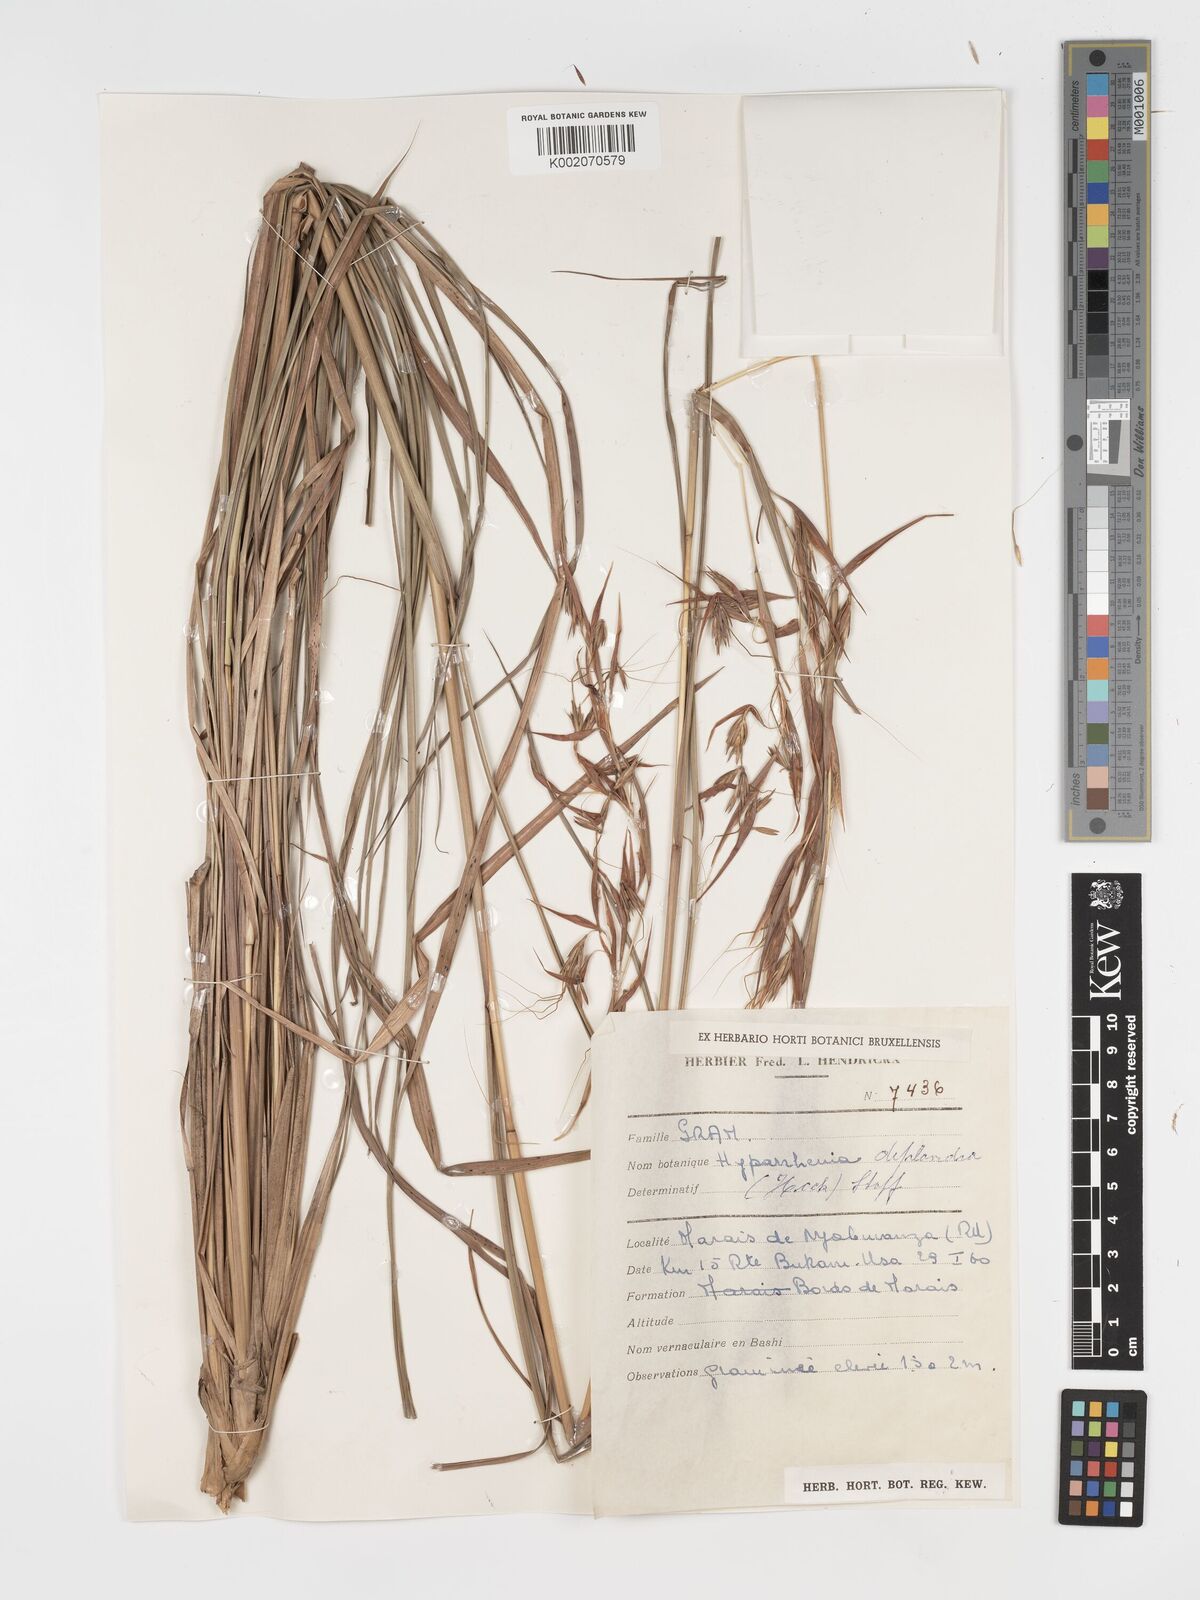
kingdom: Plantae
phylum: Tracheophyta
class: Liliopsida
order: Poales
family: Poaceae
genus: Hyparrhenia
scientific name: Hyparrhenia diplandra
